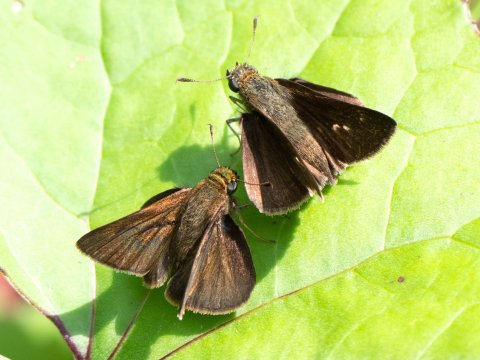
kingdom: Animalia
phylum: Arthropoda
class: Insecta
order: Lepidoptera
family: Hesperiidae
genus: Euphyes
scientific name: Euphyes vestris
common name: Dun Skipper
